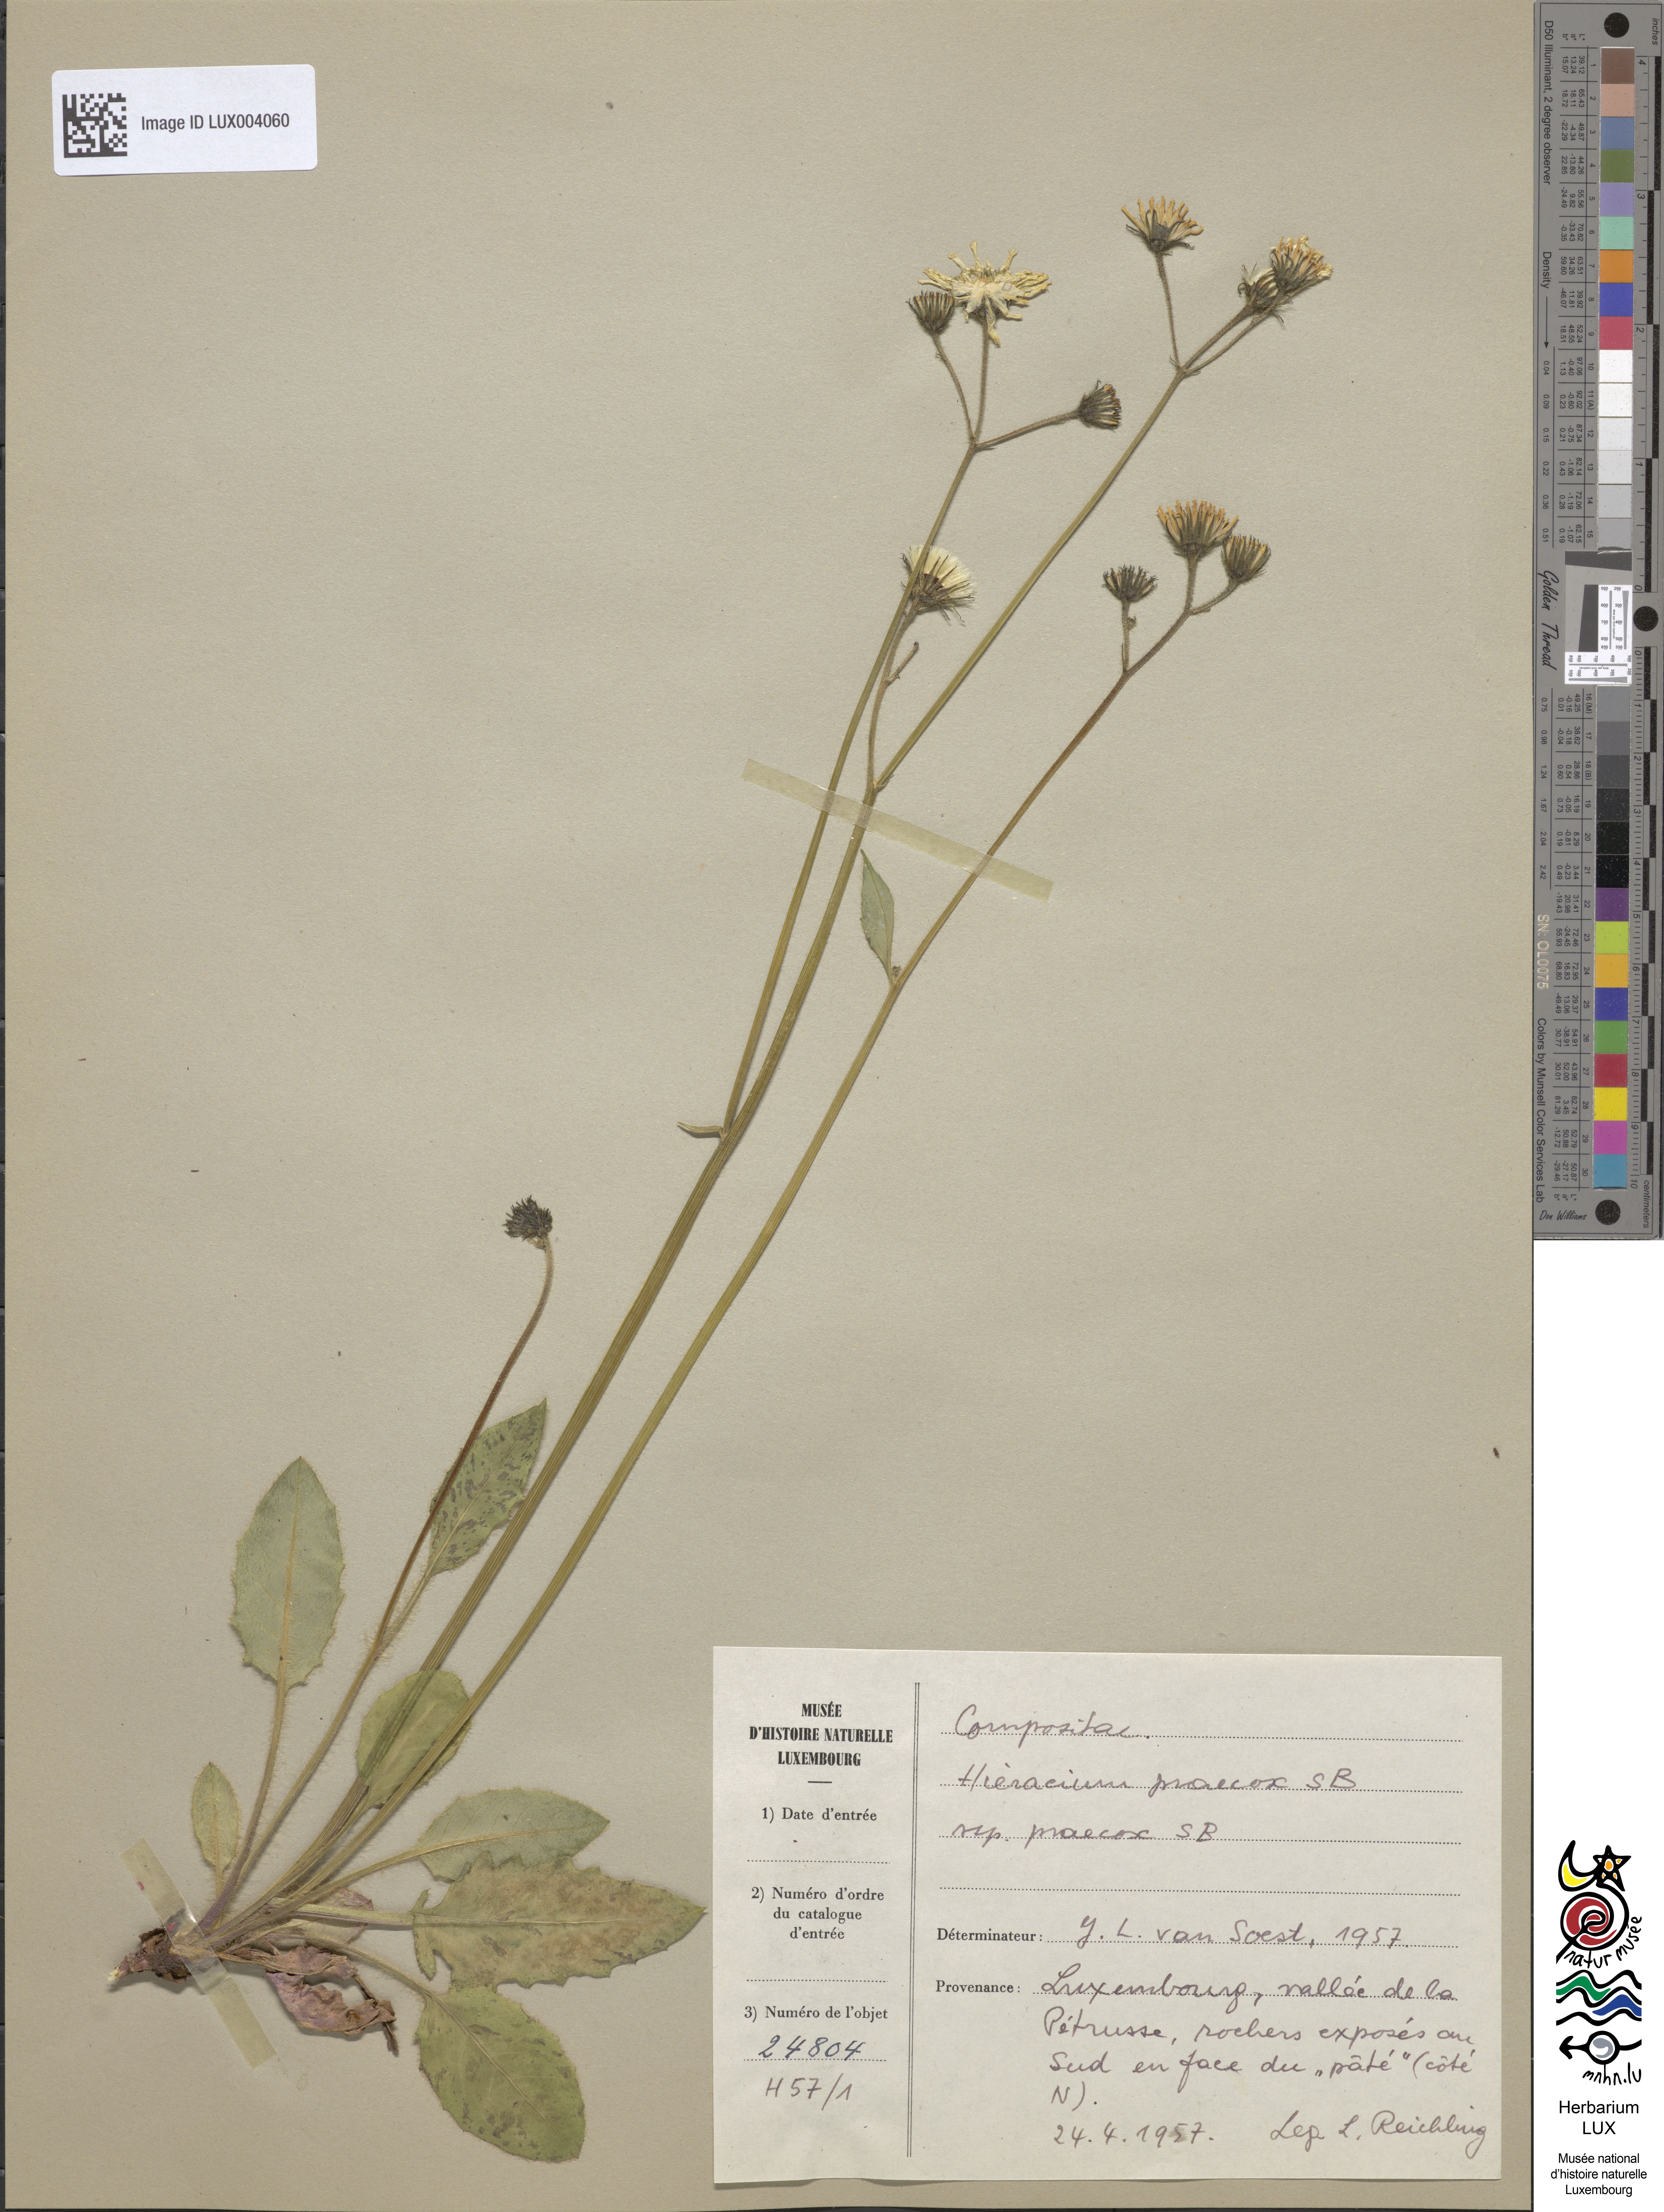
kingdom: Plantae
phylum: Tracheophyta
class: Magnoliopsida
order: Asterales
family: Asteraceae
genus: Hieracium
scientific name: Hieracium glaucinum
